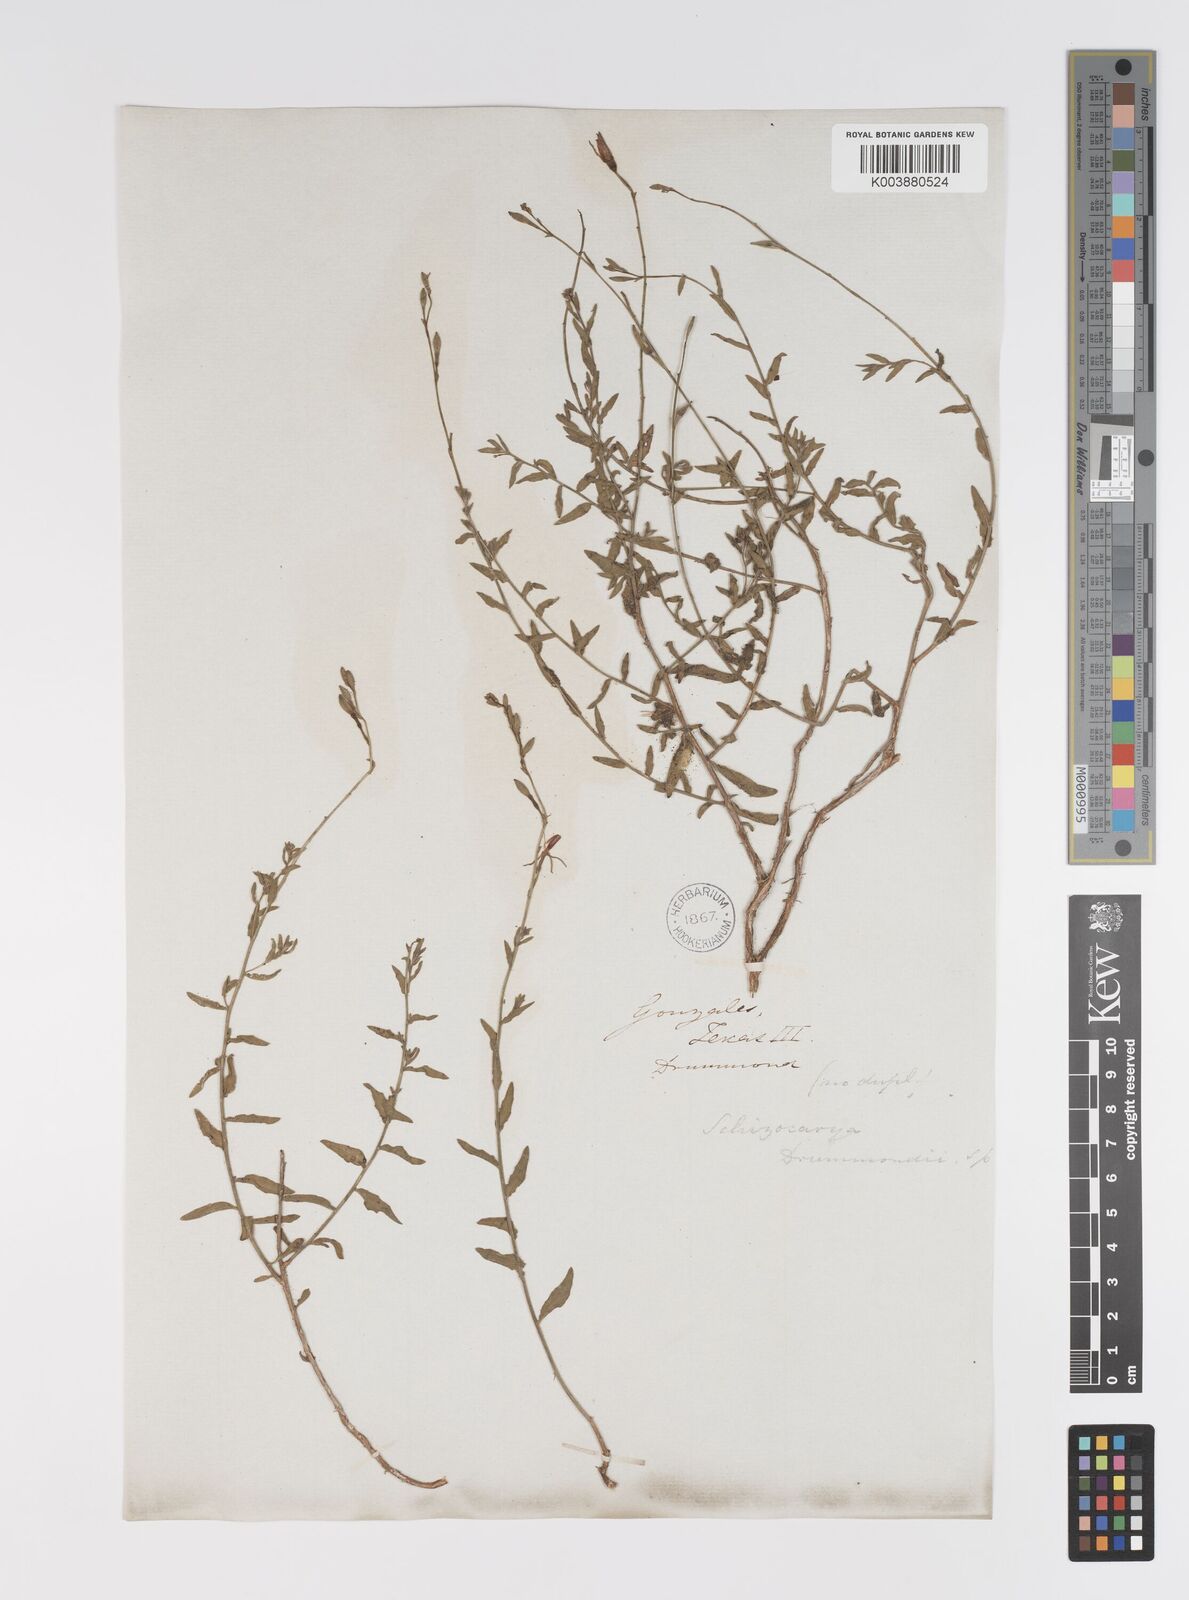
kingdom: Plantae
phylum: Tracheophyta
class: Magnoliopsida
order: Myrtales
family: Onagraceae
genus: Oenothera
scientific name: Oenothera hispida
